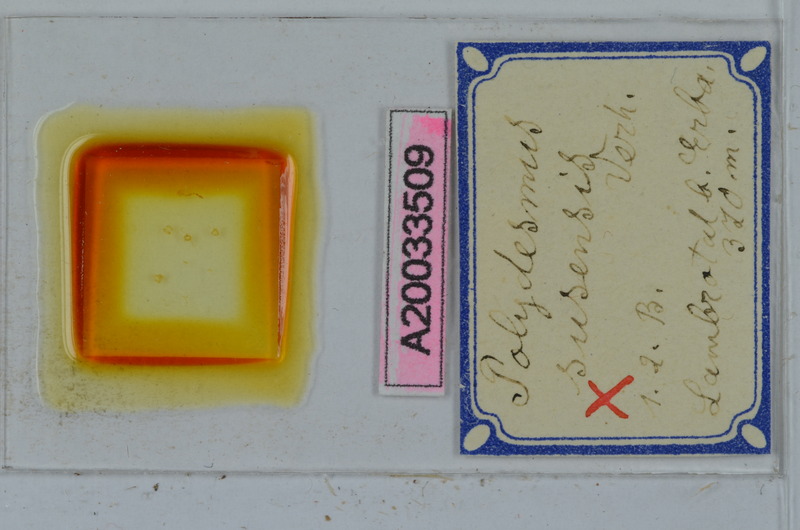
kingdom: Animalia
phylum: Arthropoda
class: Diplopoda
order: Polydesmida
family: Polydesmidae
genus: Polydesmus
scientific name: Polydesmus susensis
